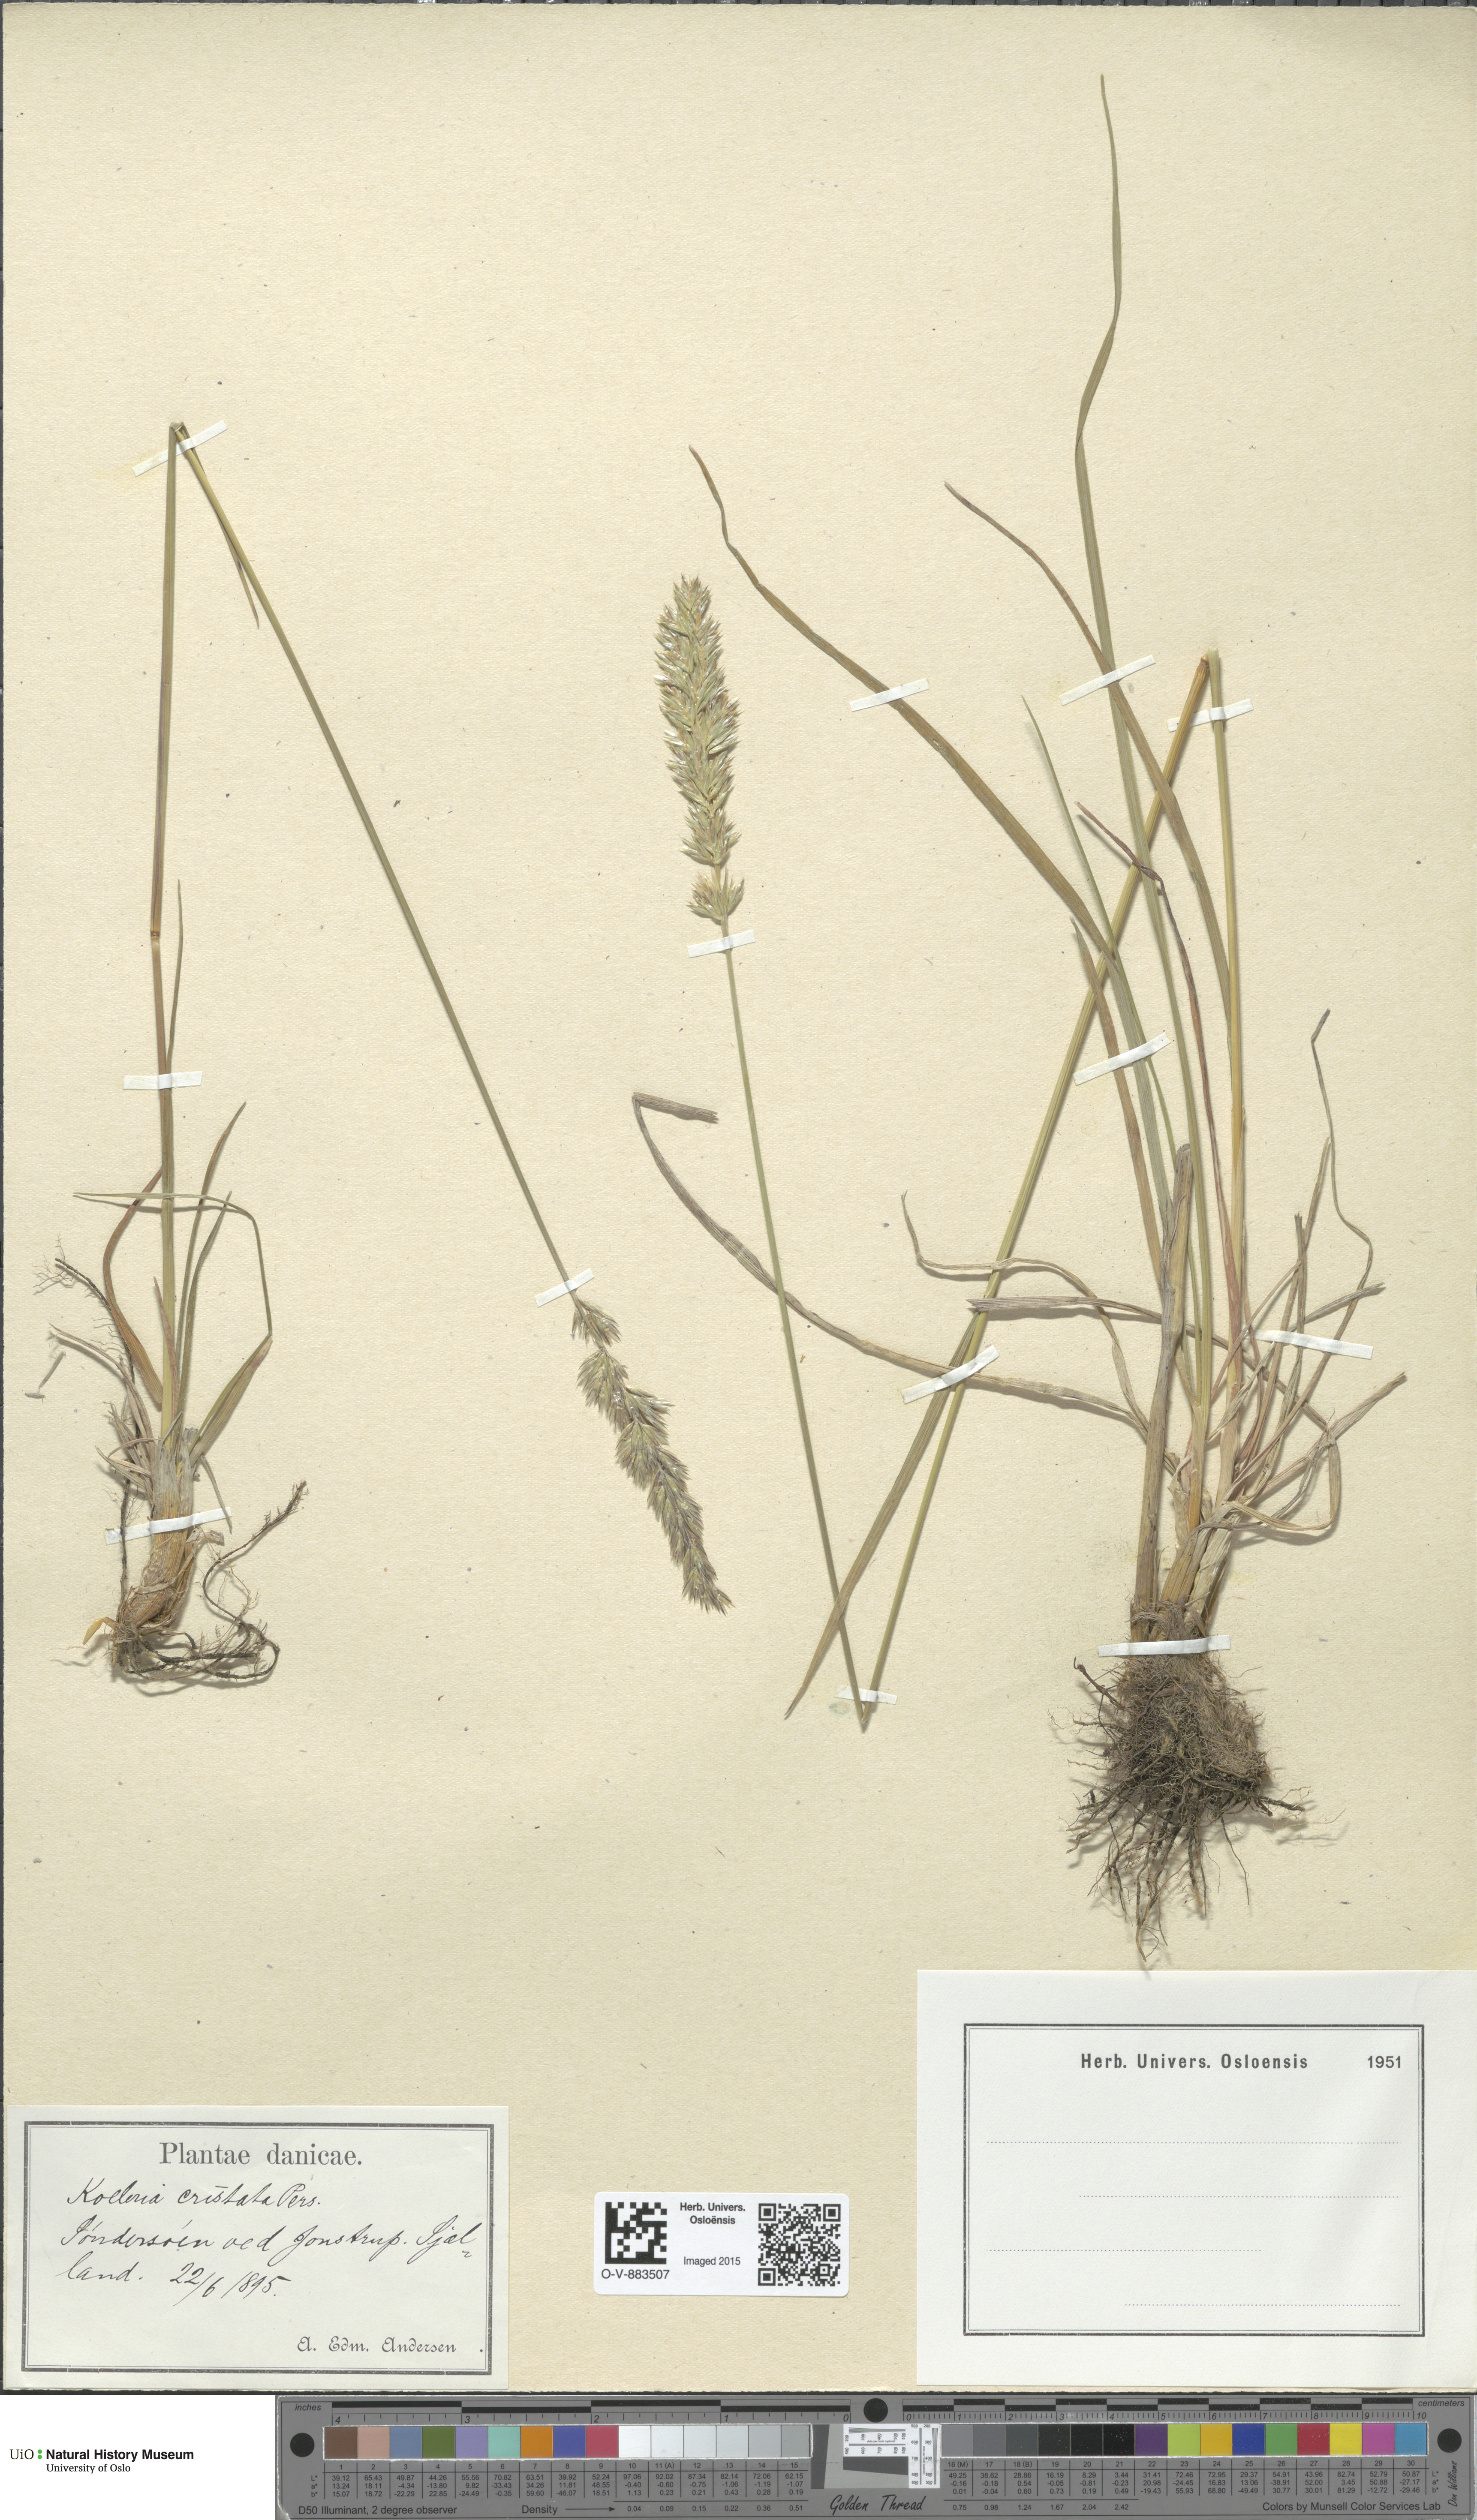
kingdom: Plantae
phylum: Tracheophyta
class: Liliopsida
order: Poales
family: Poaceae
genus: Koeleria
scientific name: Koeleria pyramidata
